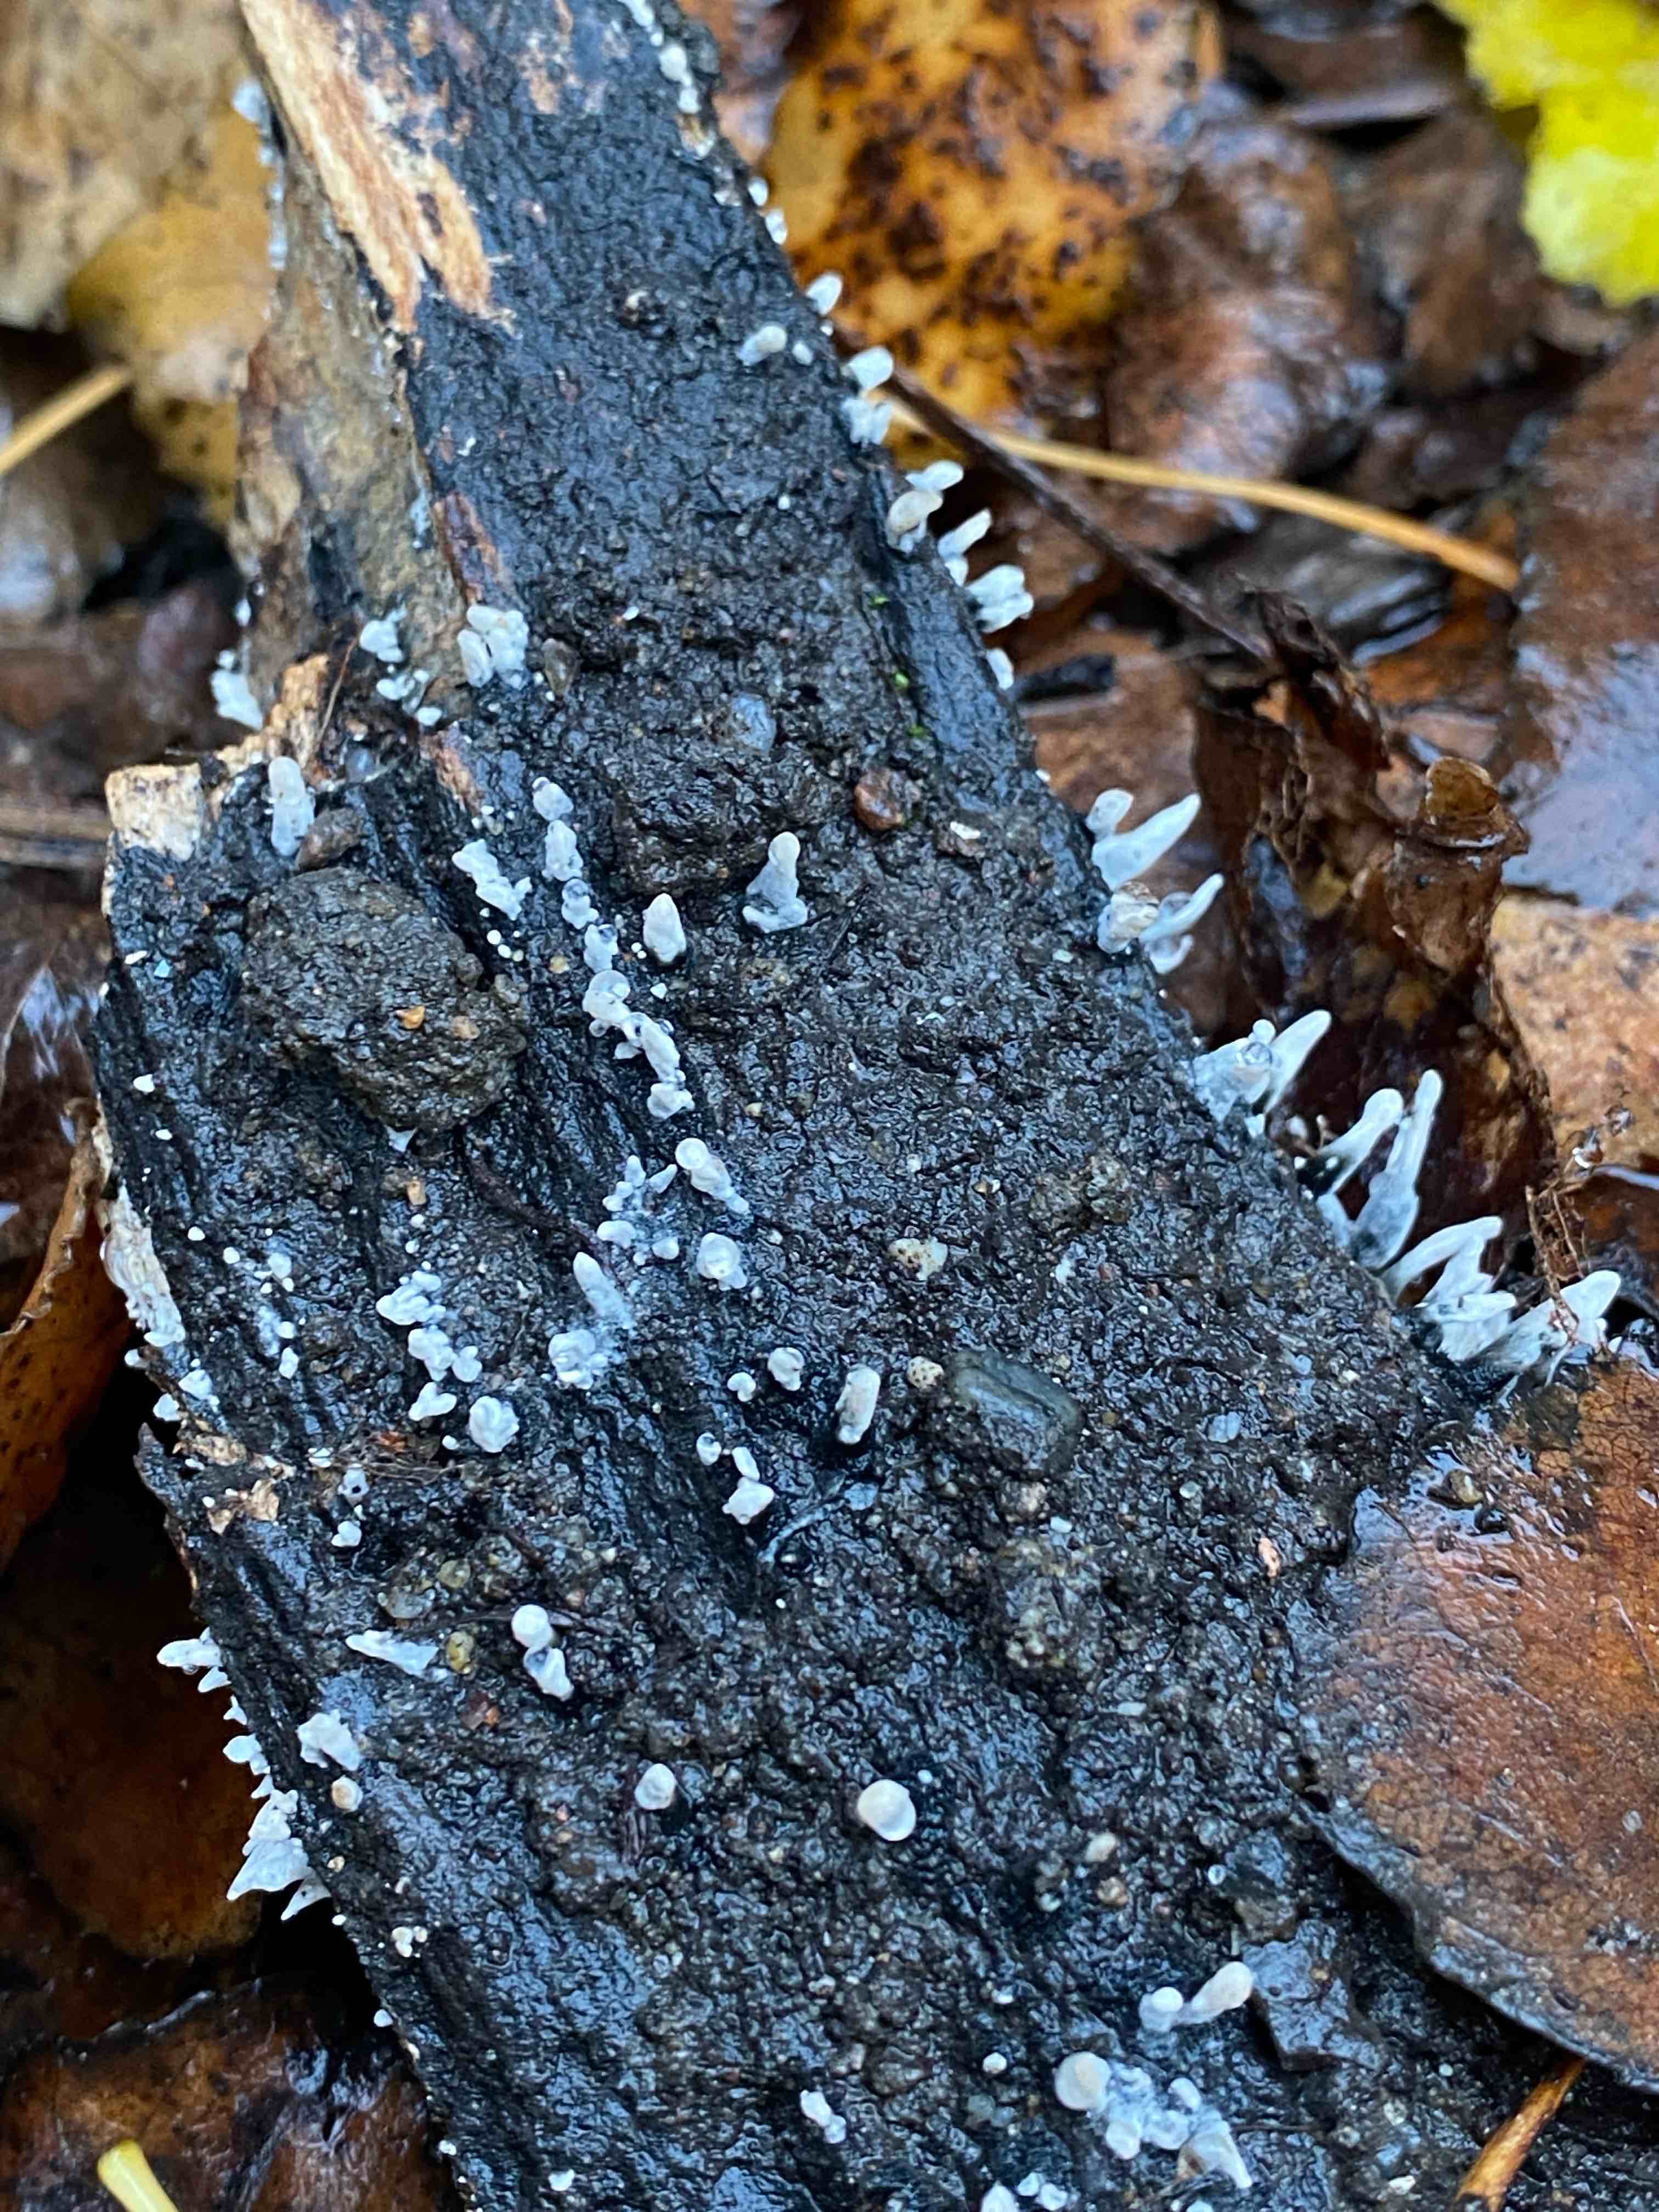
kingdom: Fungi
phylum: Ascomycota
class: Sordariomycetes
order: Xylariales
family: Xylariaceae
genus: Xylaria
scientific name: Xylaria hypoxylon
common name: grenet stødsvamp
